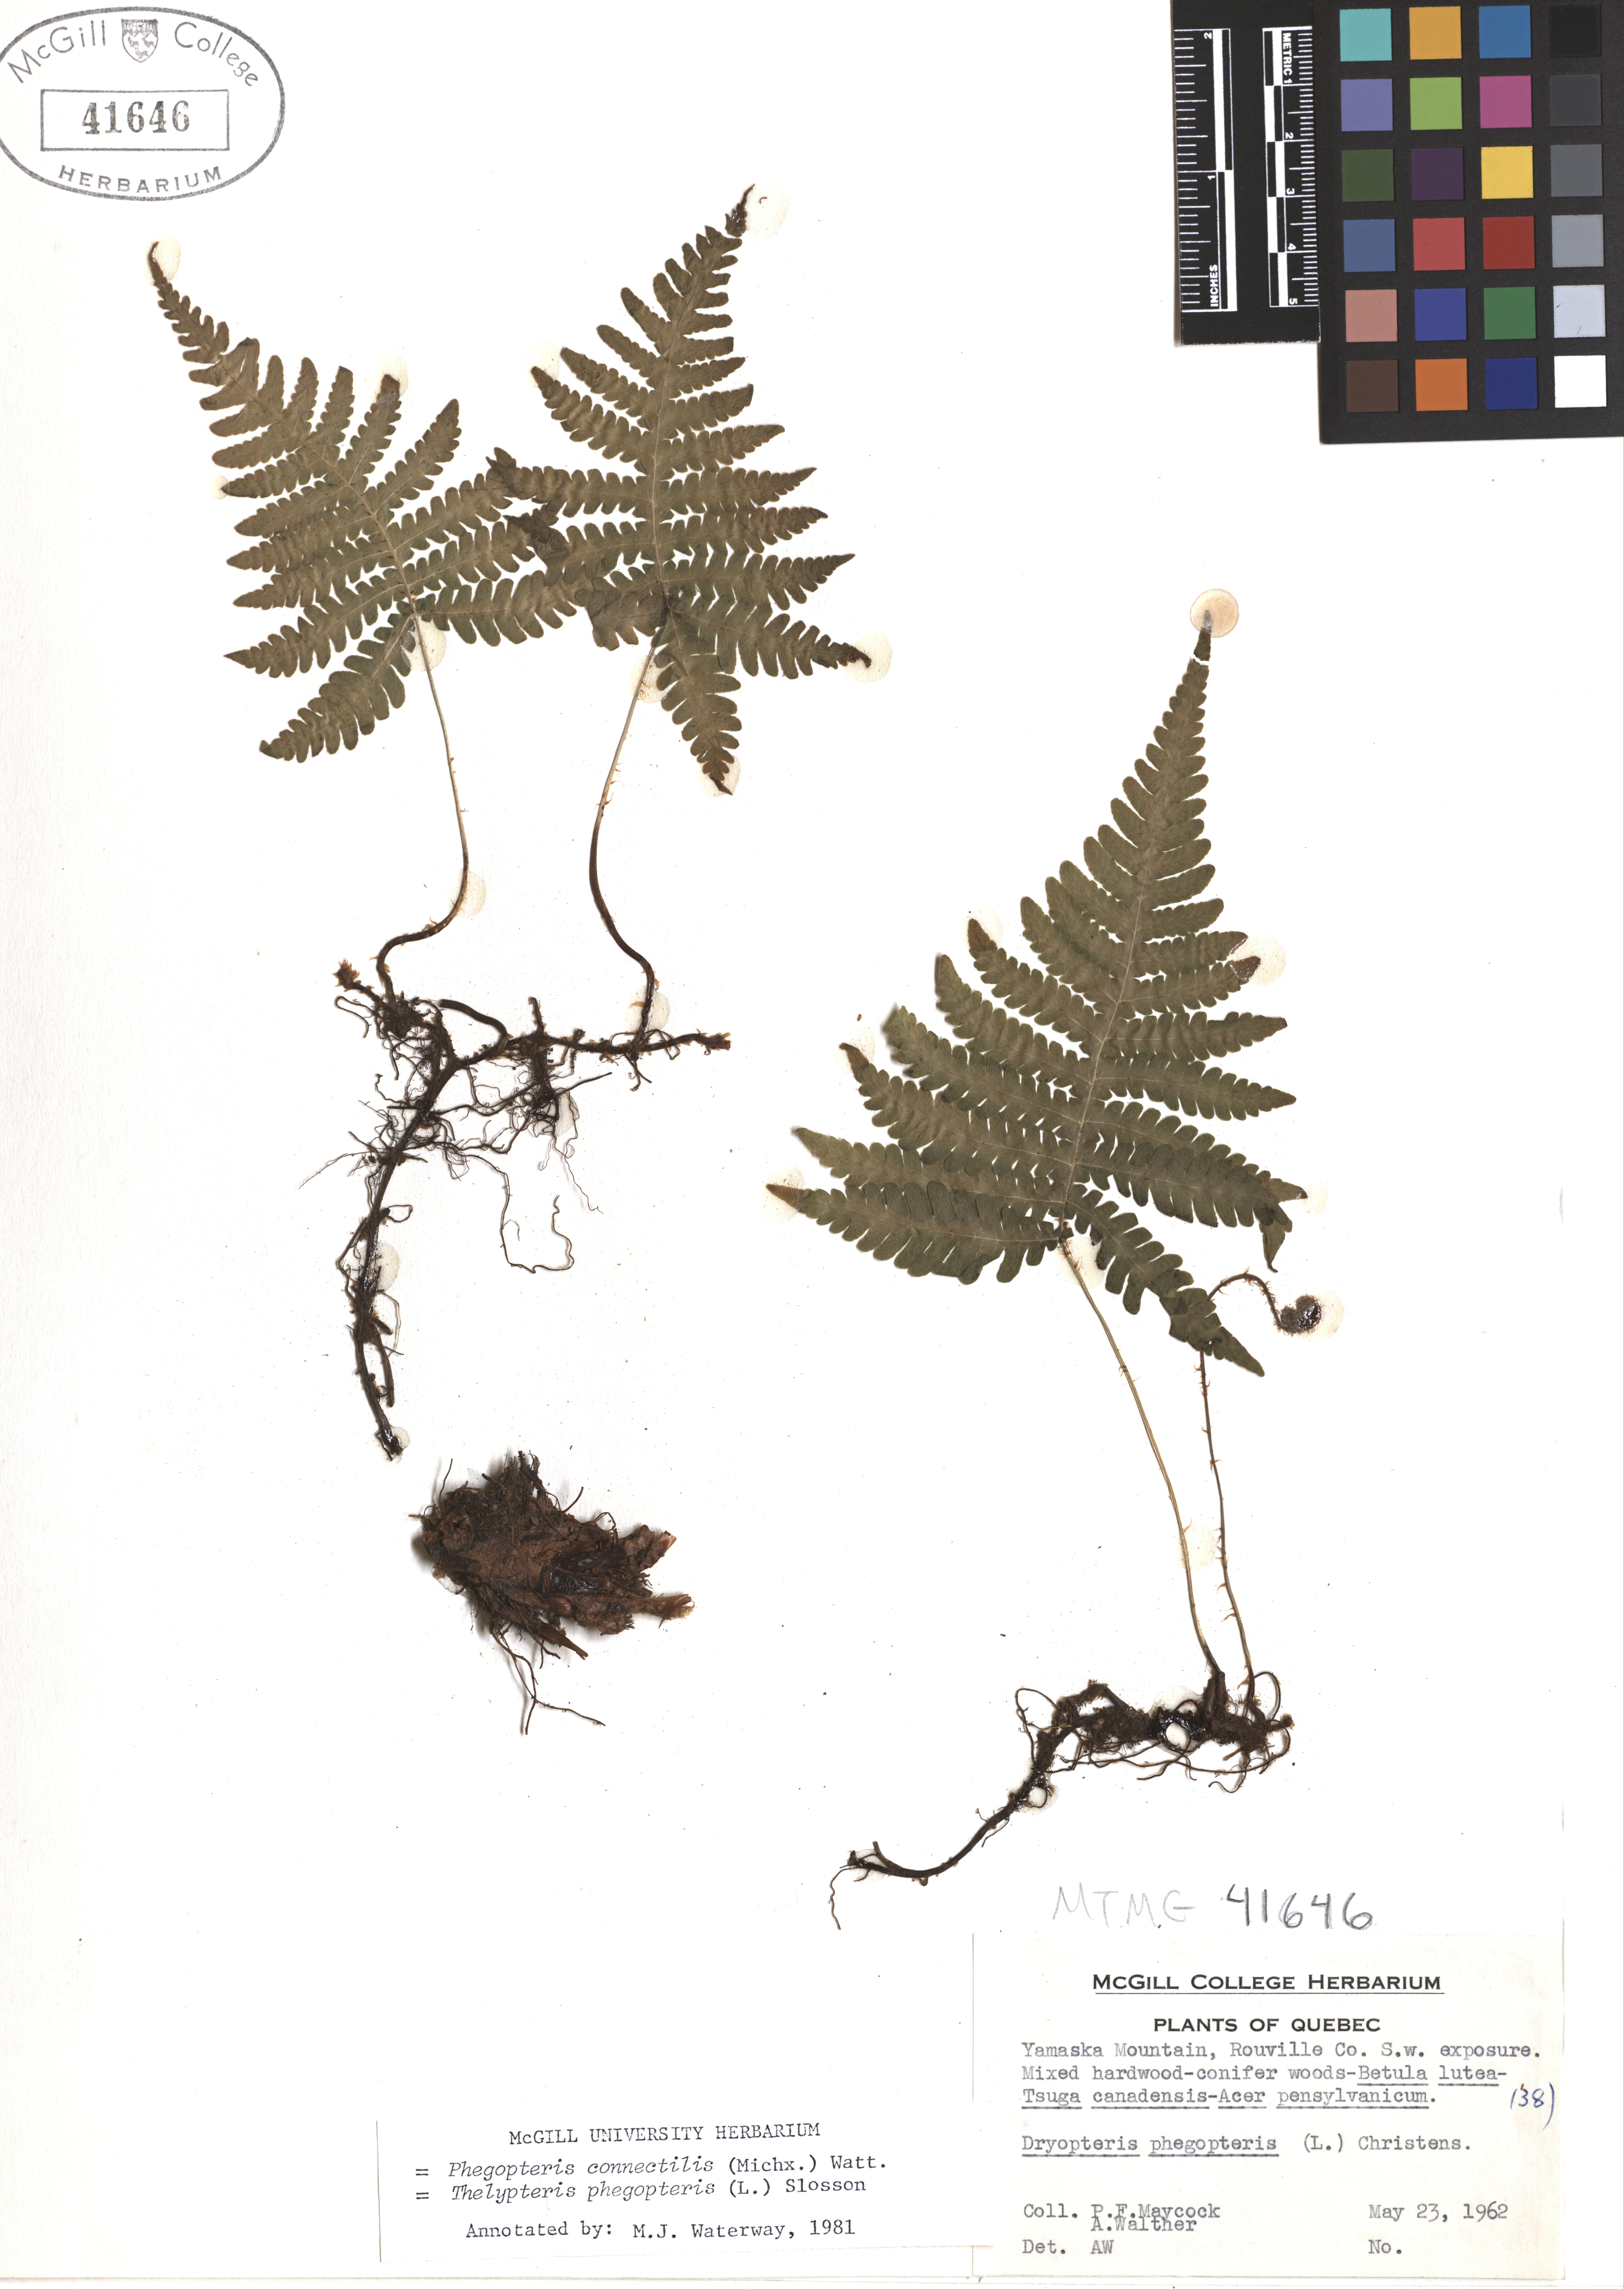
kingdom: Plantae
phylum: Tracheophyta
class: Polypodiopsida
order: Polypodiales
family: Thelypteridaceae
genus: Phegopteris
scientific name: Phegopteris connectilis
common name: Beech fern
